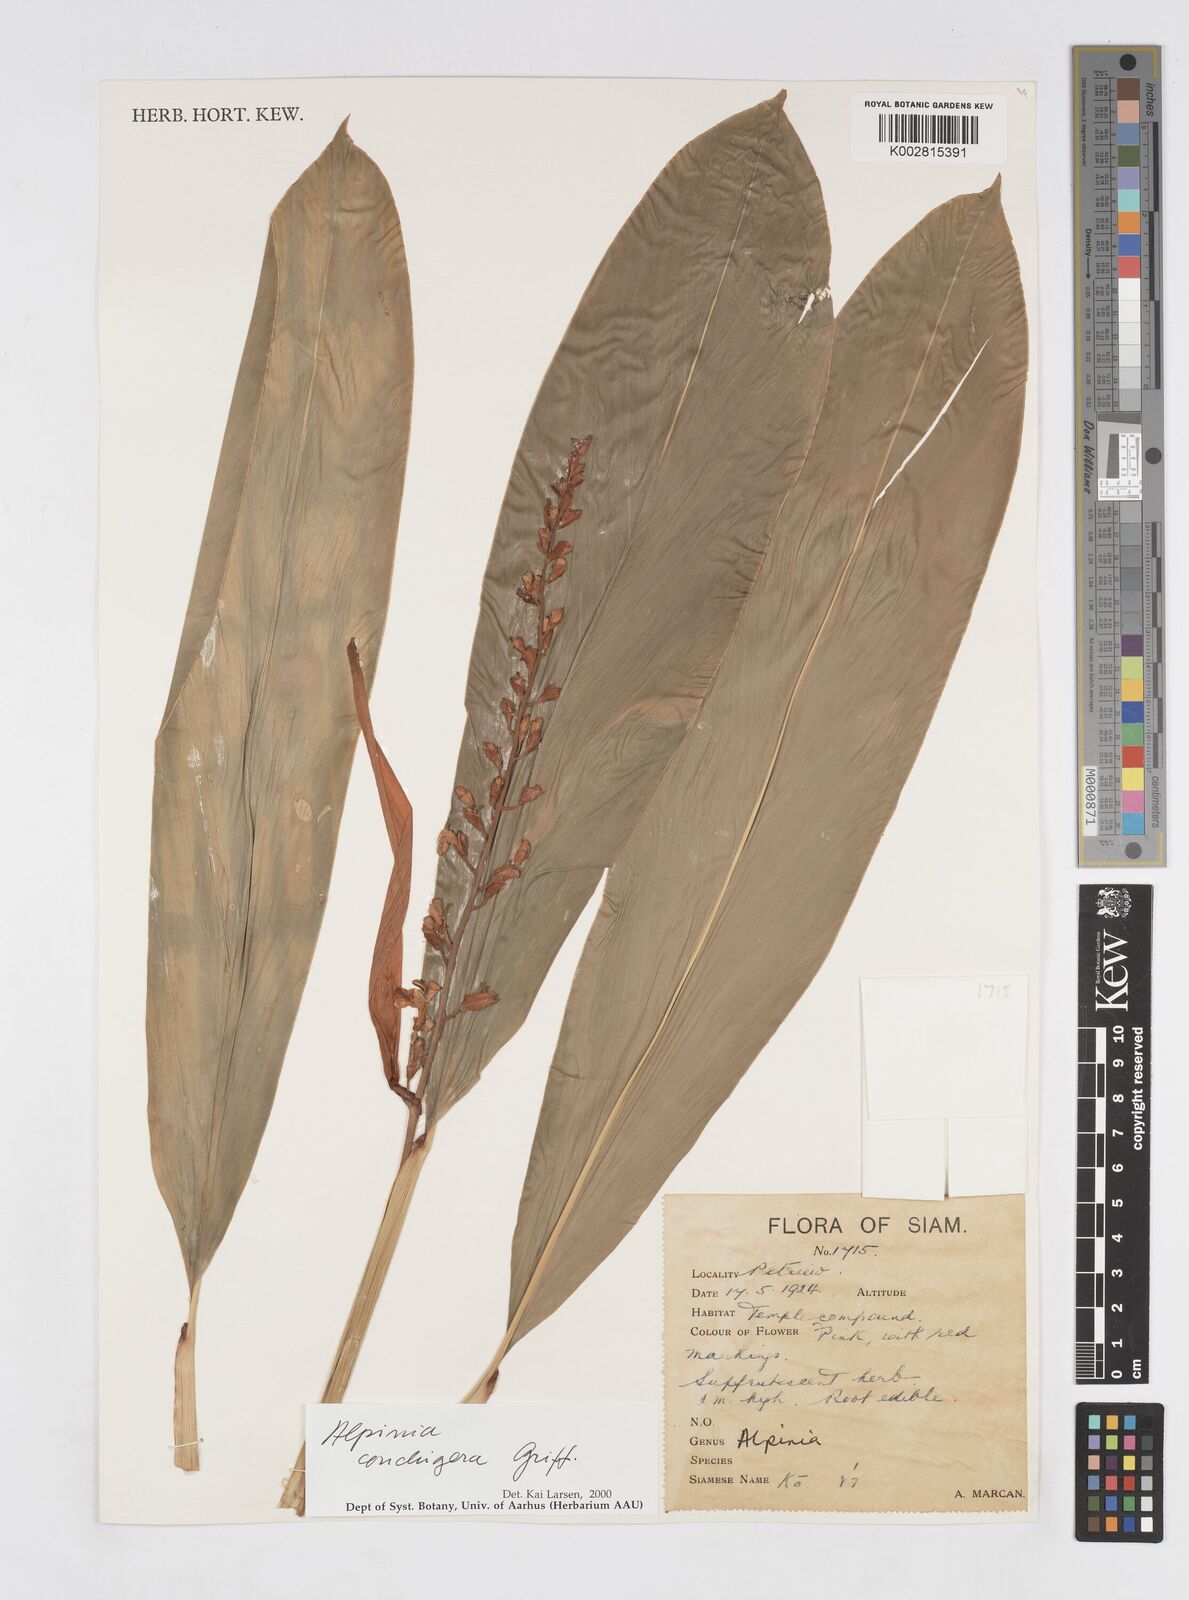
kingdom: Plantae
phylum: Tracheophyta
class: Liliopsida
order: Zingiberales
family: Zingiberaceae
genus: Alpinia
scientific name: Alpinia conchigera
